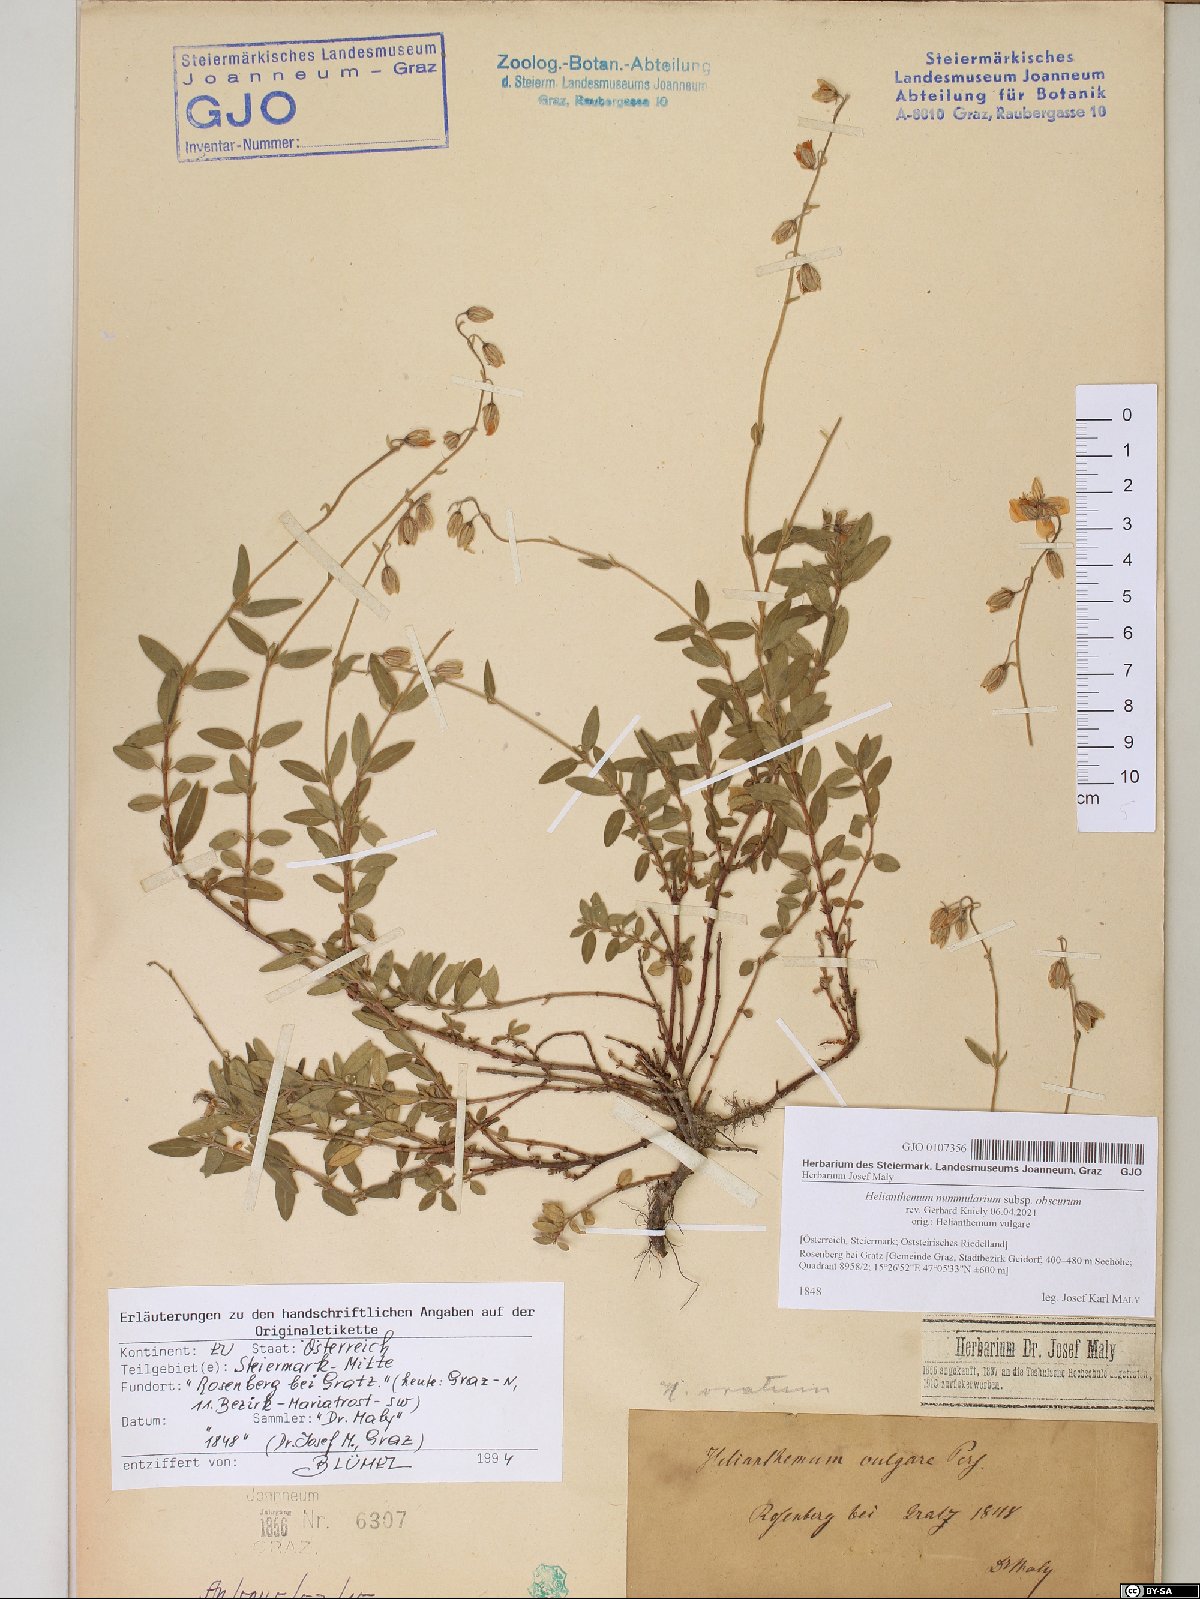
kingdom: Plantae
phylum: Tracheophyta
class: Magnoliopsida
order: Malvales
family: Cistaceae
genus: Helianthemum
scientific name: Helianthemum nummularium
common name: Common rock-rose
